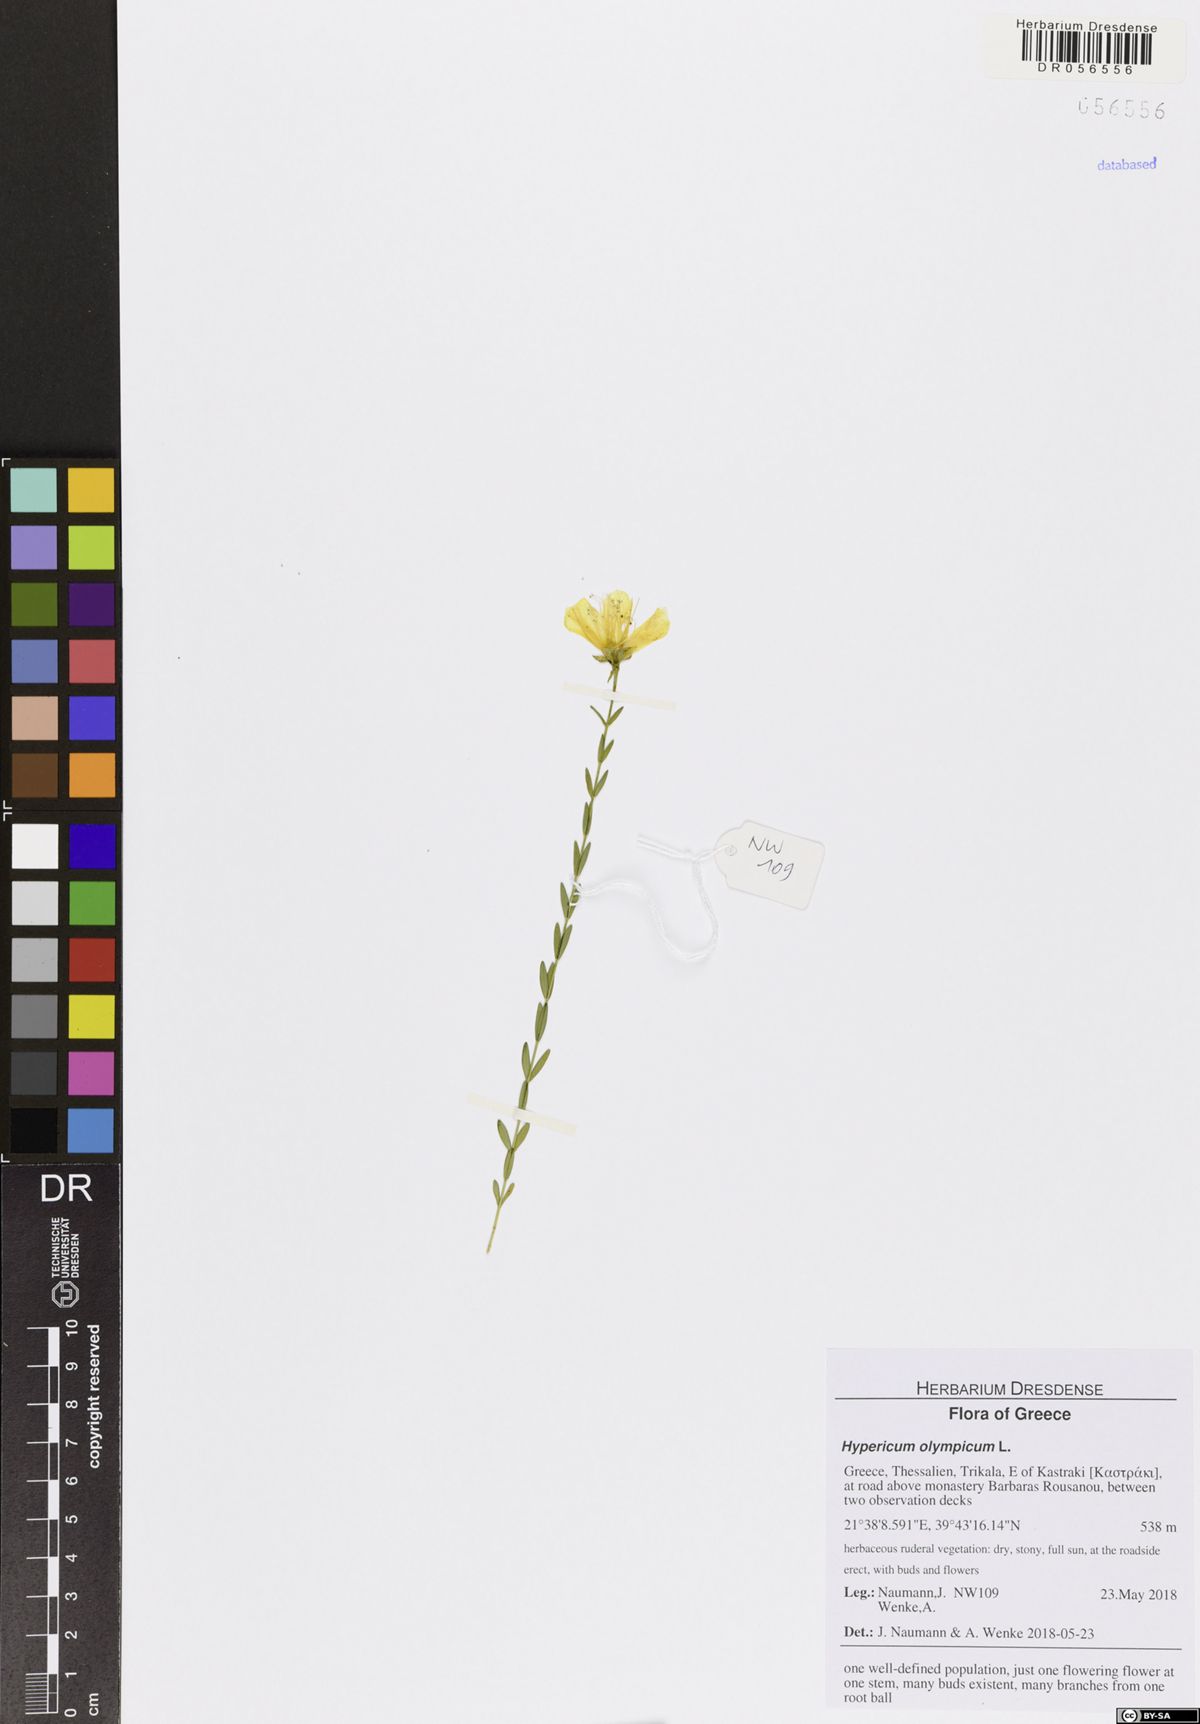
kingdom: Plantae
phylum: Tracheophyta
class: Magnoliopsida
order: Malpighiales
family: Hypericaceae
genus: Hypericum
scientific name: Hypericum olympicum
